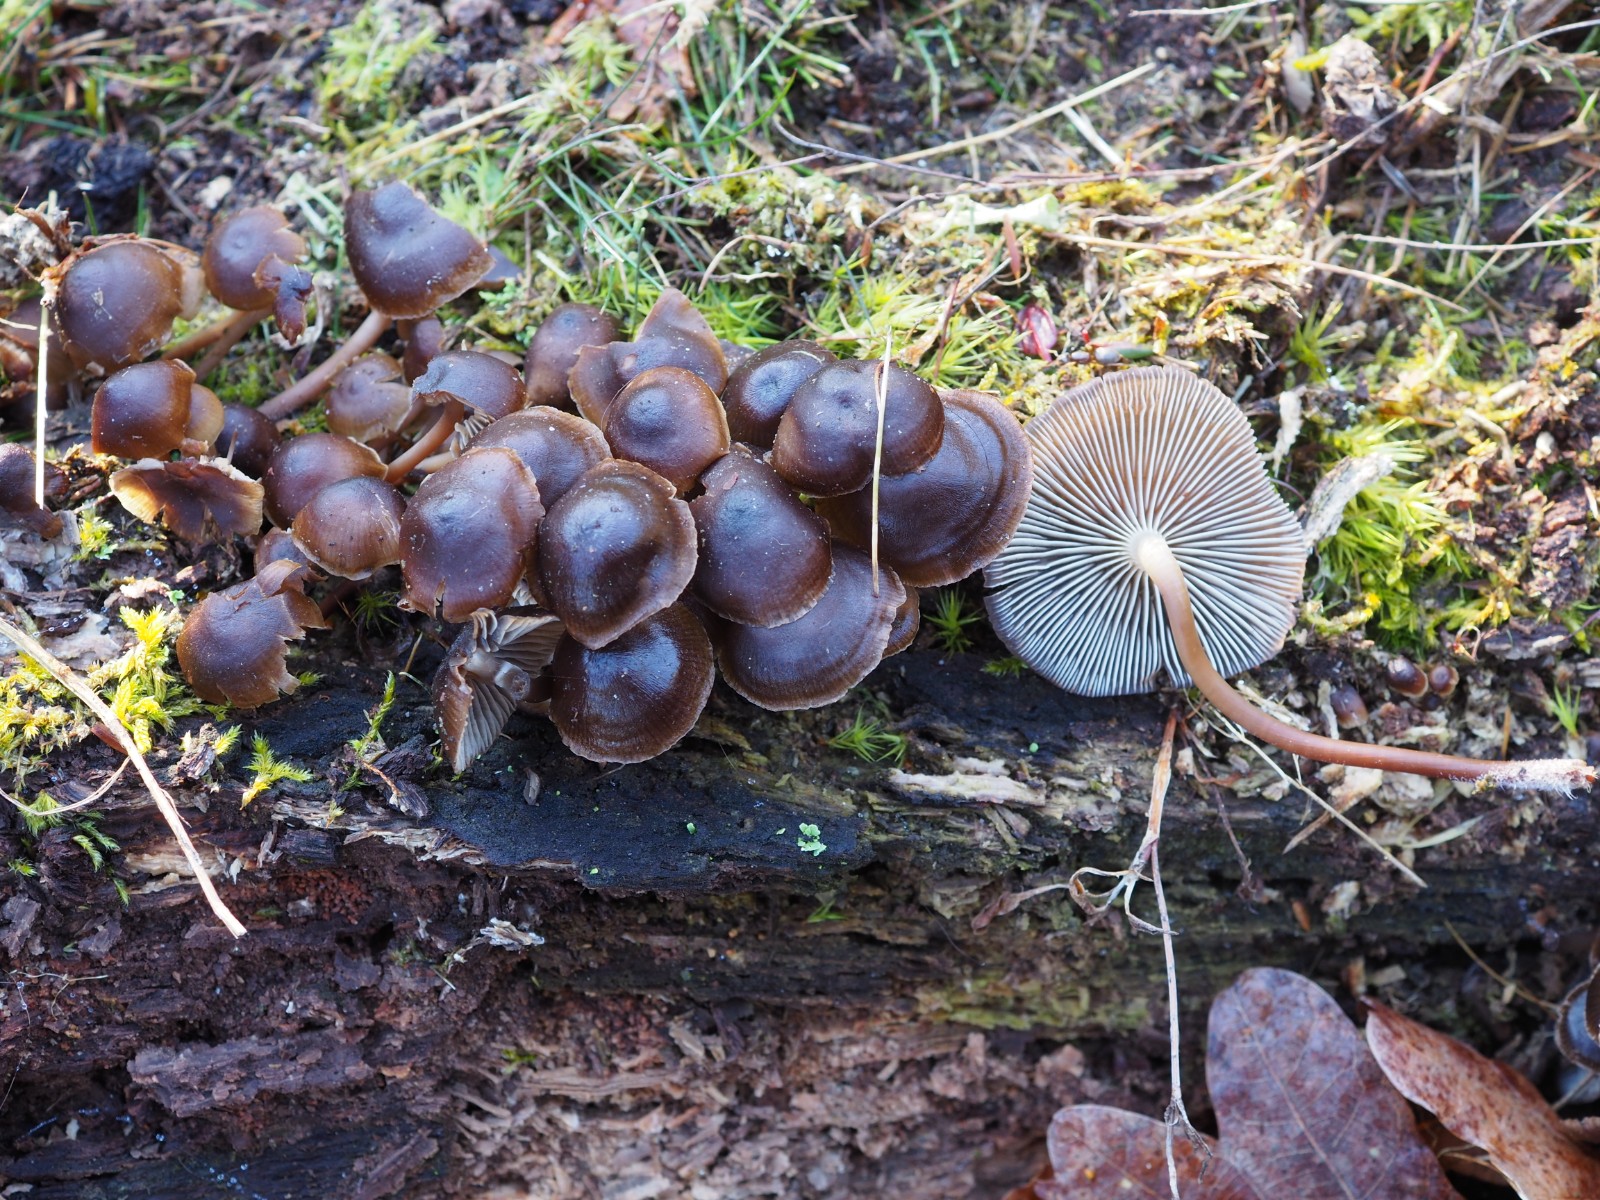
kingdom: Fungi
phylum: Basidiomycota
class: Agaricomycetes
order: Agaricales
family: Mycenaceae
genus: Mycena
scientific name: Mycena tintinnabulum
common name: vinter-huesvamp
